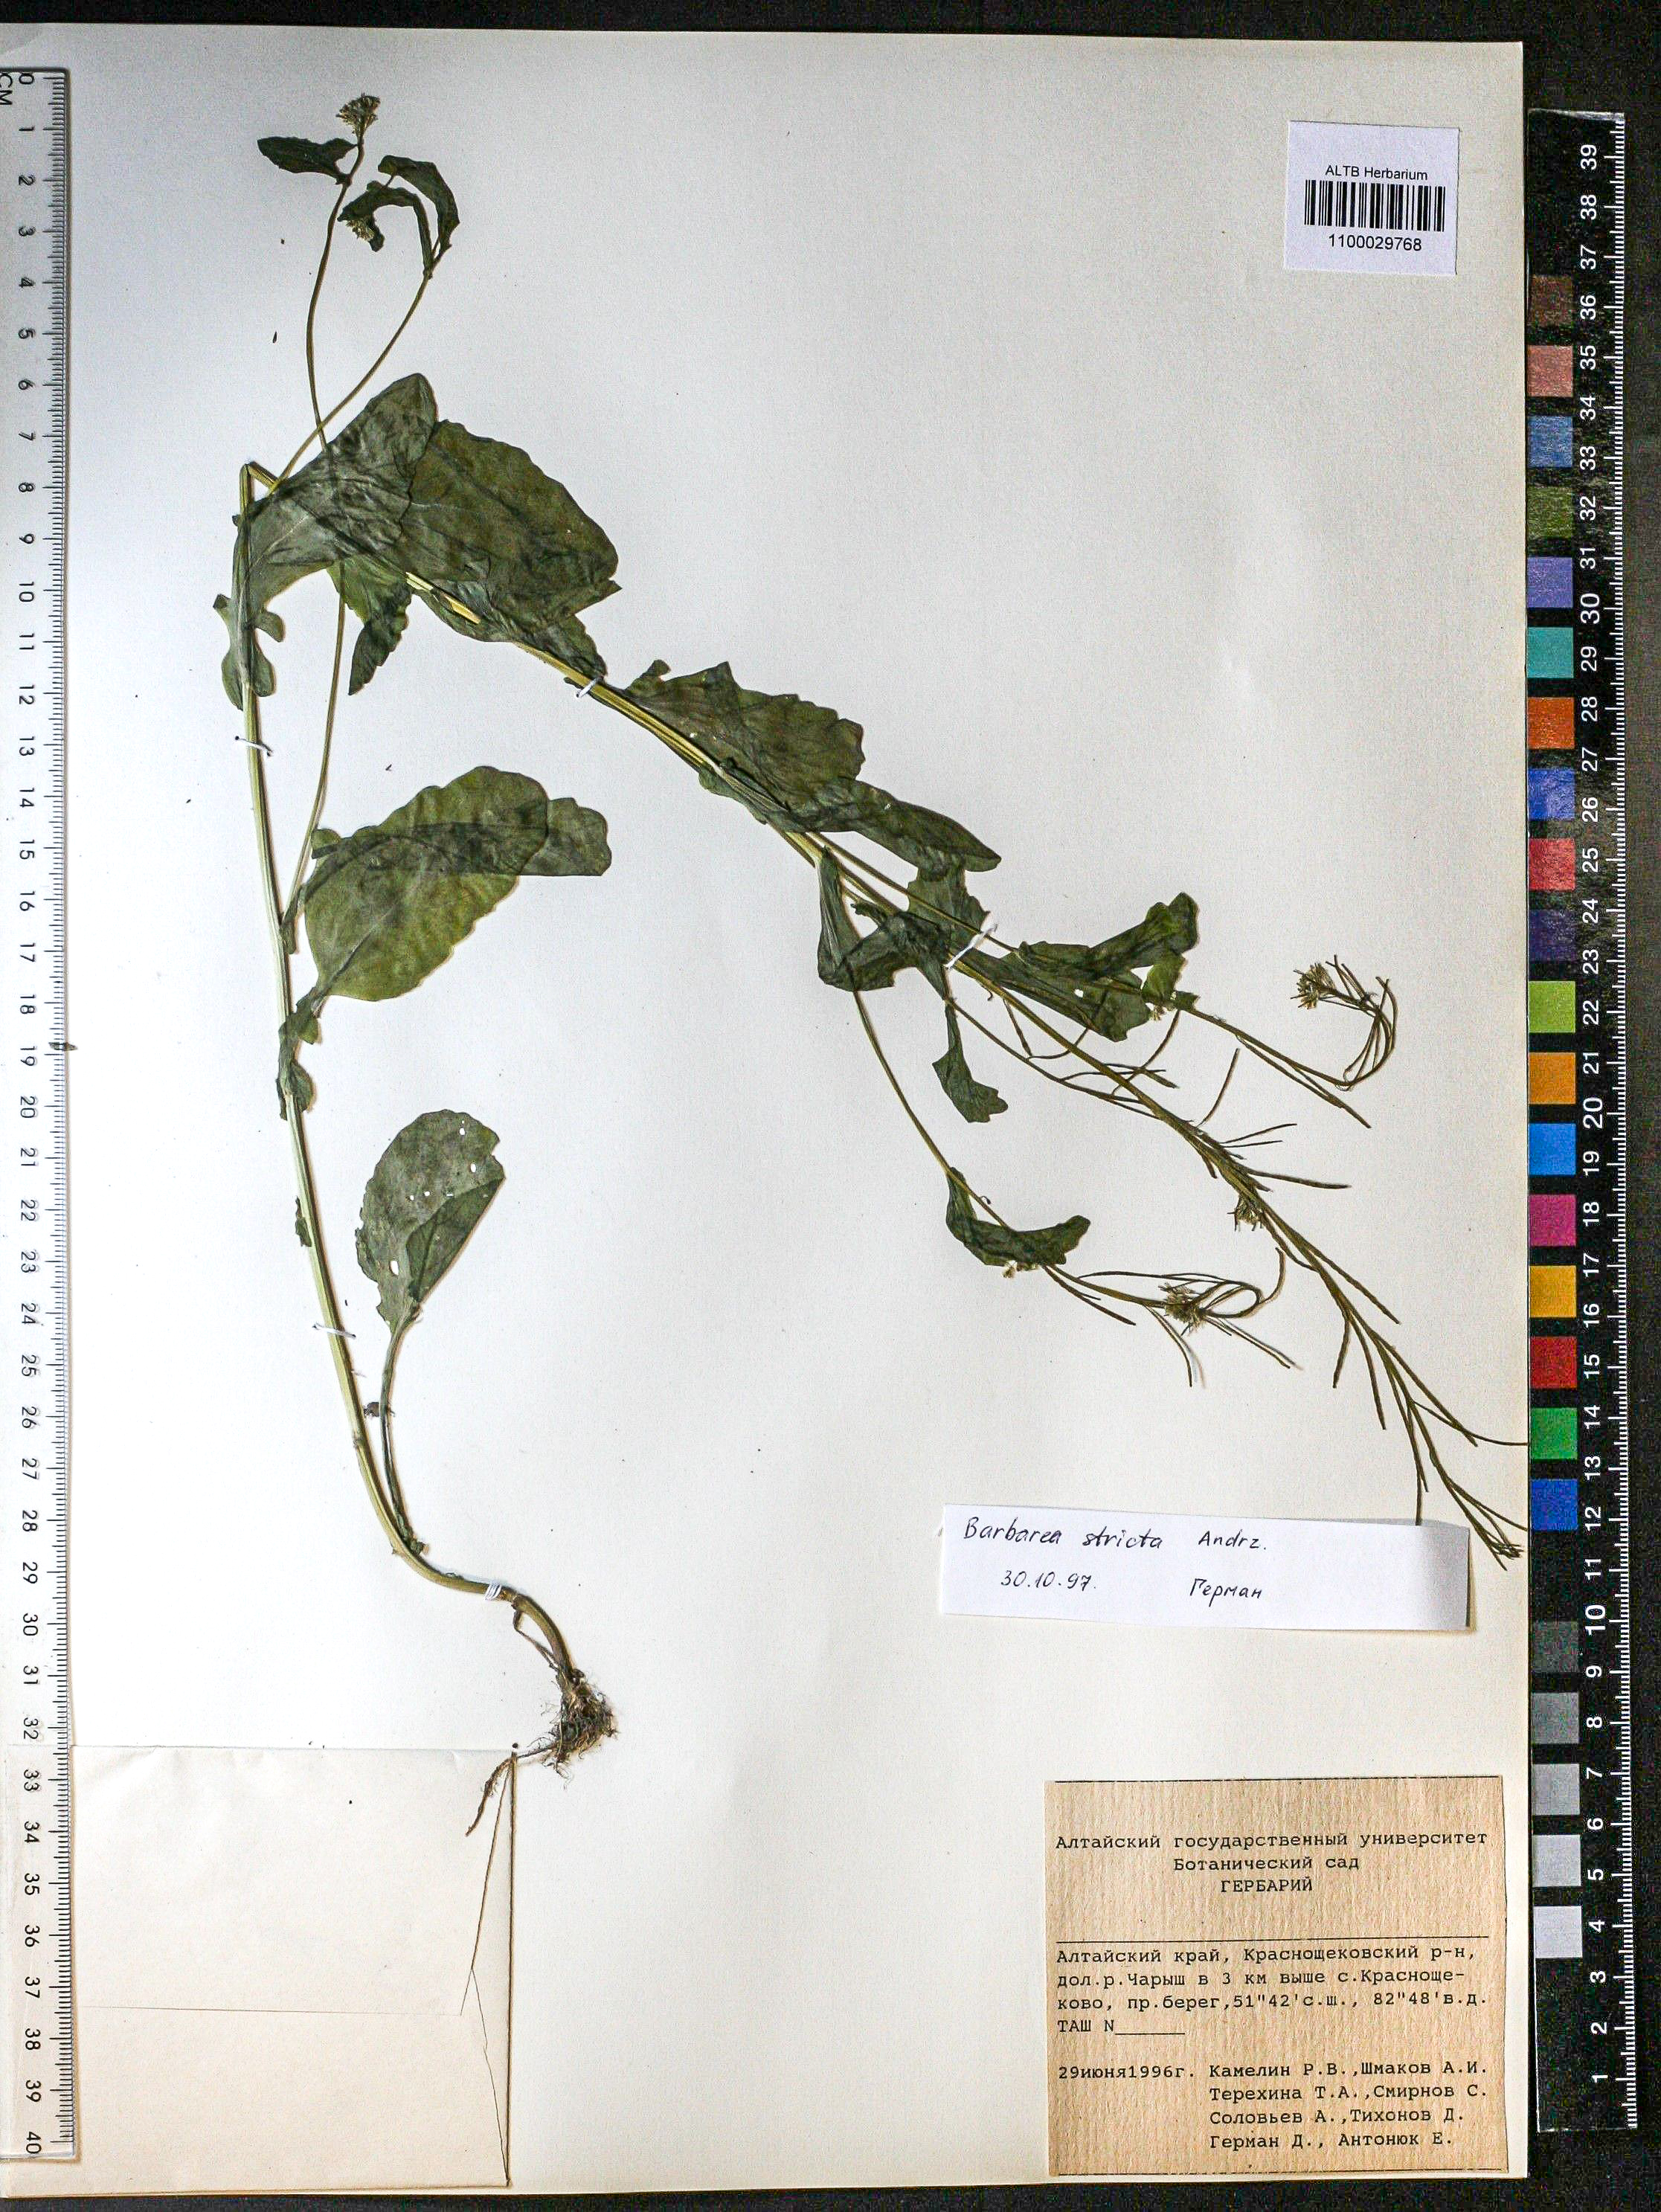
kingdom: Plantae
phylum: Tracheophyta
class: Magnoliopsida
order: Brassicales
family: Brassicaceae
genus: Barbarea
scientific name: Barbarea vulgaris
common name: Cressy-greens
